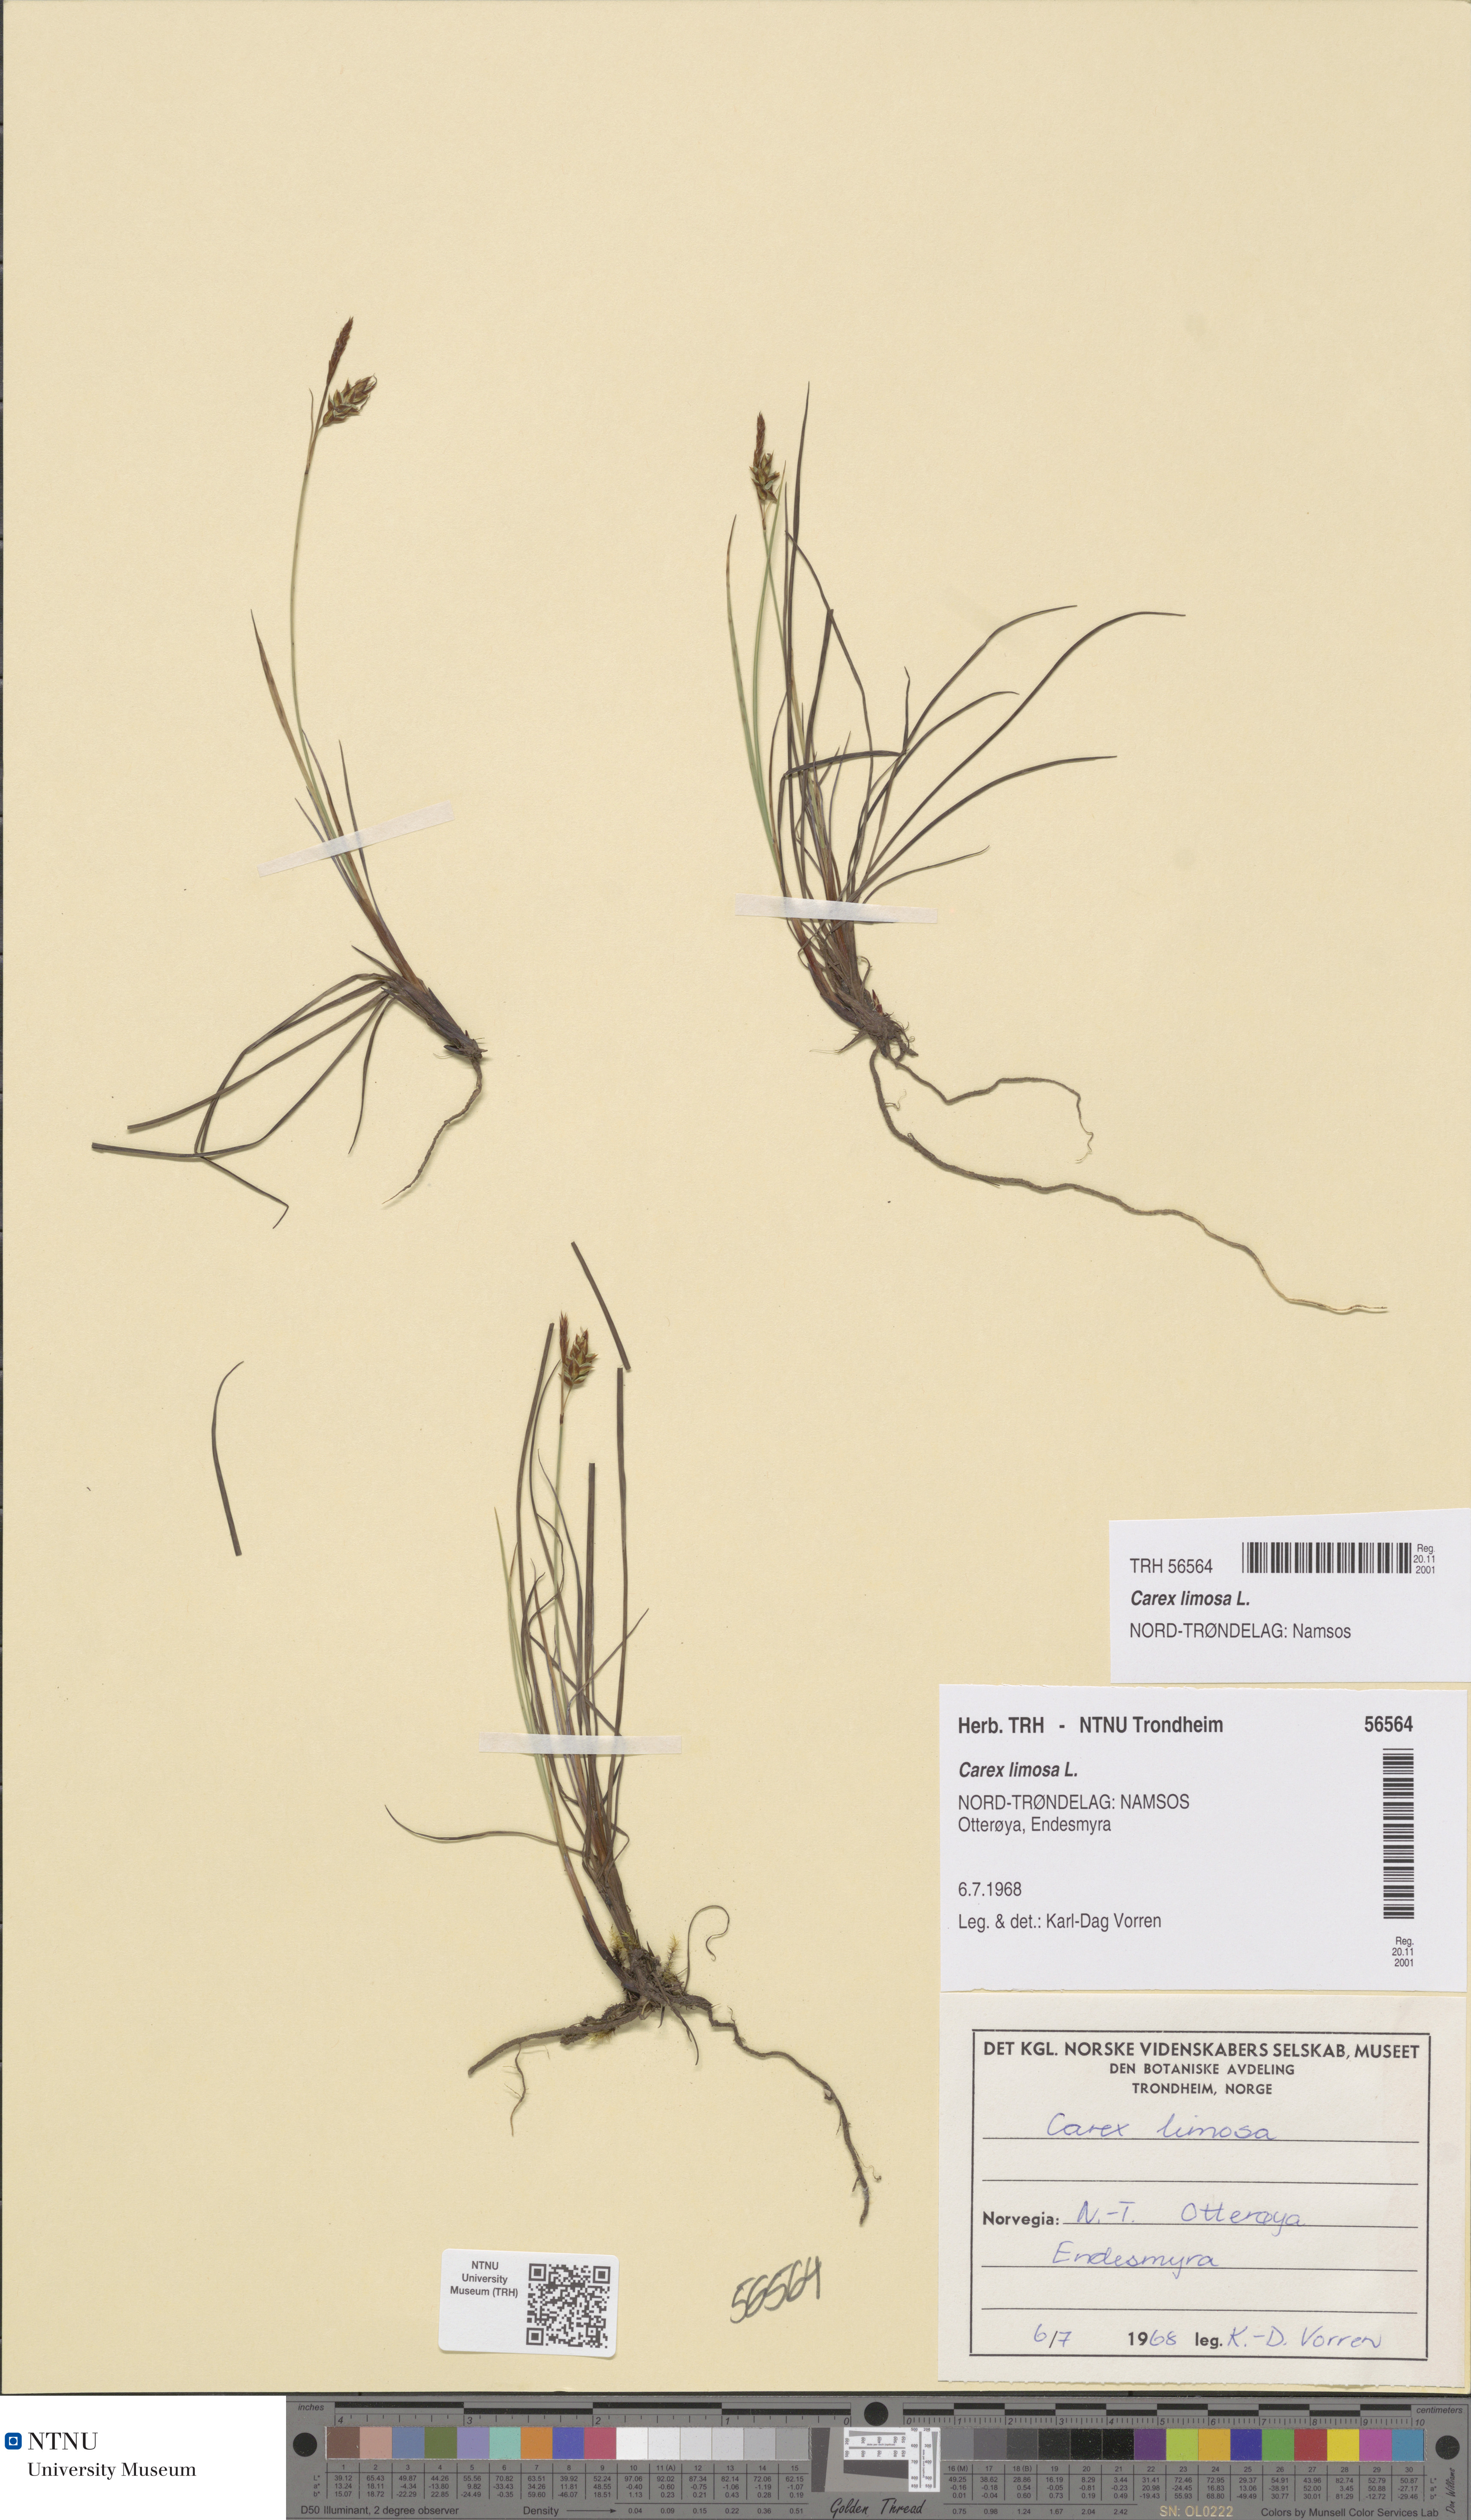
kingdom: Plantae
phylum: Tracheophyta
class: Liliopsida
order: Poales
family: Cyperaceae
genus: Carex
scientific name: Carex limosa
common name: Bog sedge
